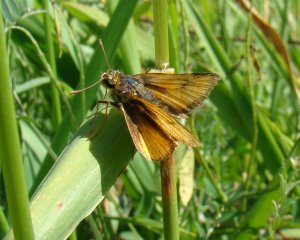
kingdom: Animalia
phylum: Arthropoda
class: Insecta
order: Lepidoptera
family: Hesperiidae
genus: Atrytone
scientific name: Atrytone delaware
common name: Delaware Skipper
